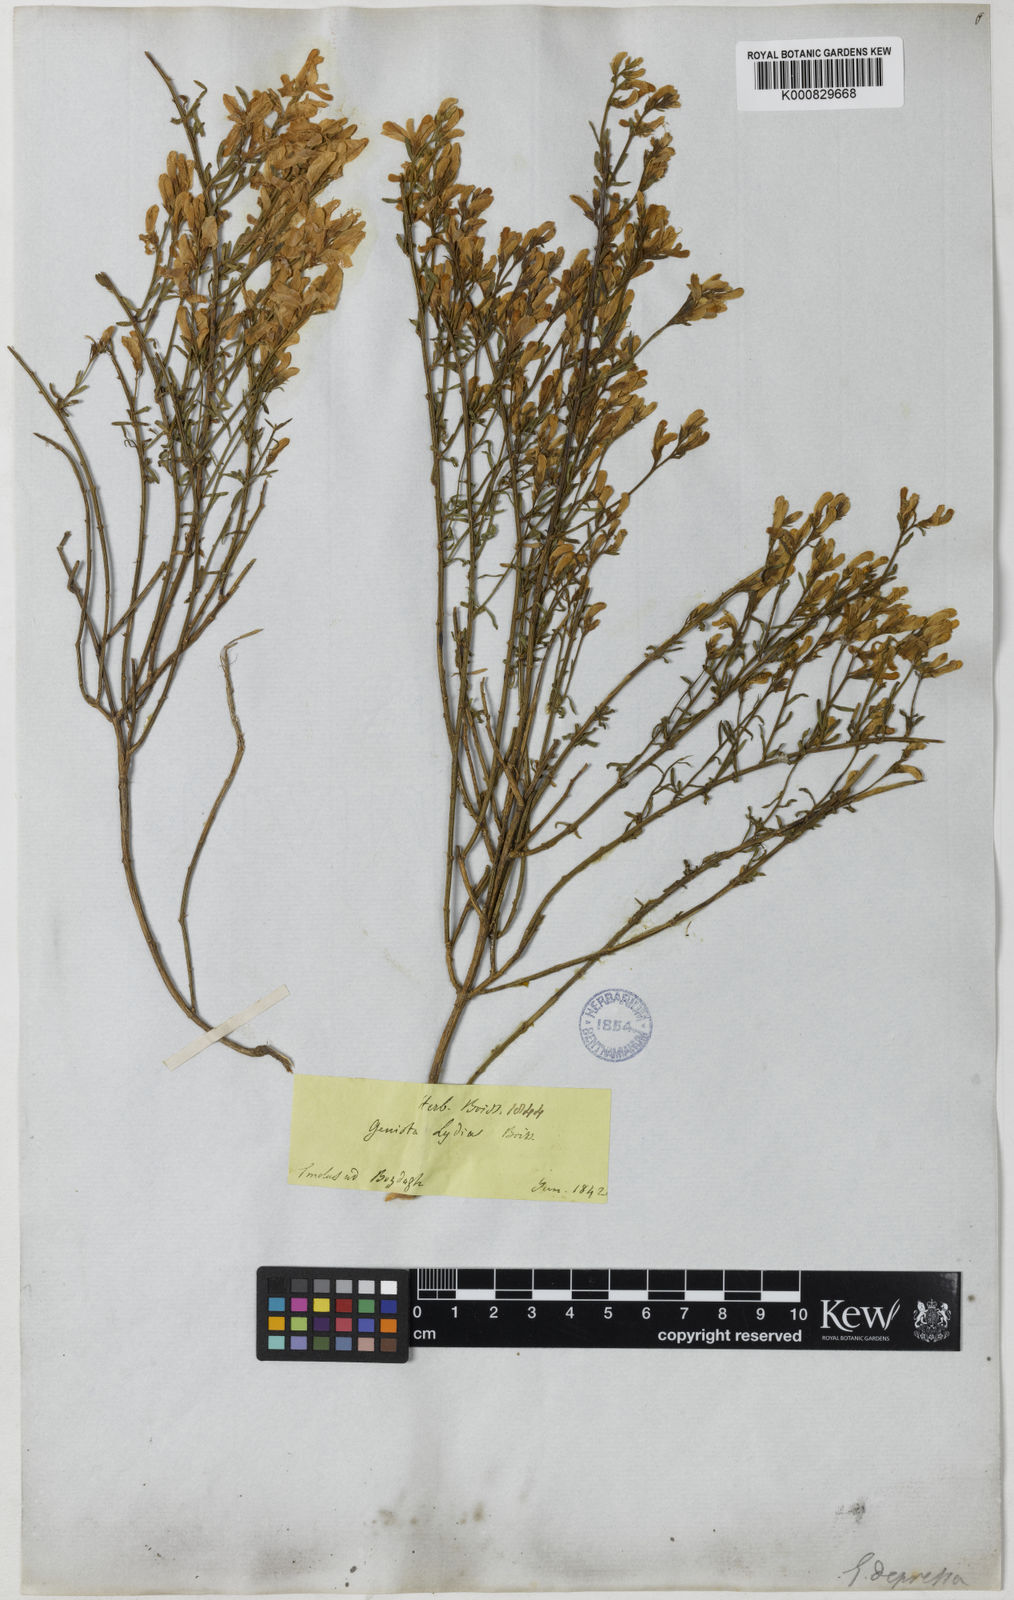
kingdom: Plantae
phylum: Tracheophyta
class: Magnoliopsida
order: Fabales
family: Fabaceae
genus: Genista
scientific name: Genista lydia
